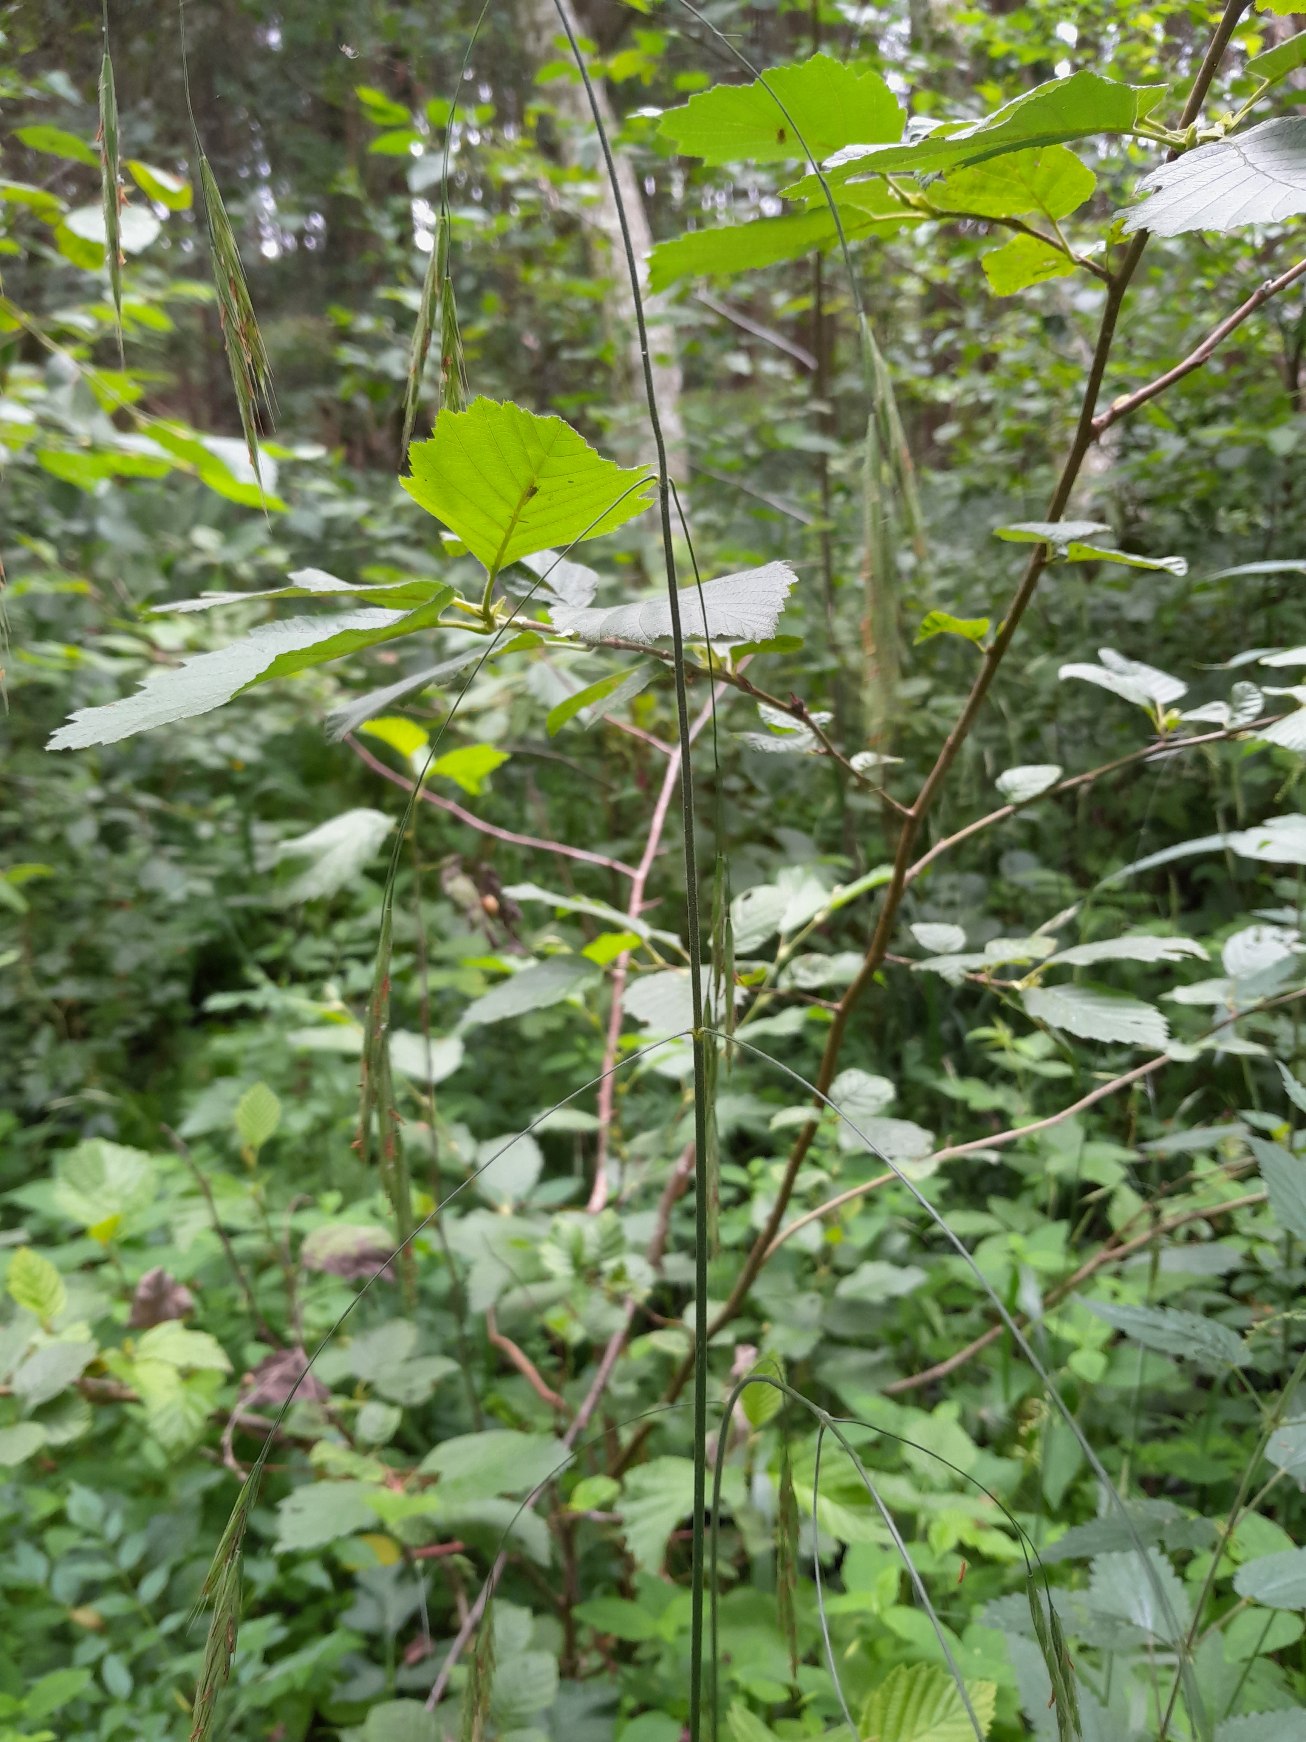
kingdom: Plantae
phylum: Tracheophyta
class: Liliopsida
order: Poales
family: Poaceae
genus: Bromus
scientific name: Bromus ramosus
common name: Sildig skov-hejre
